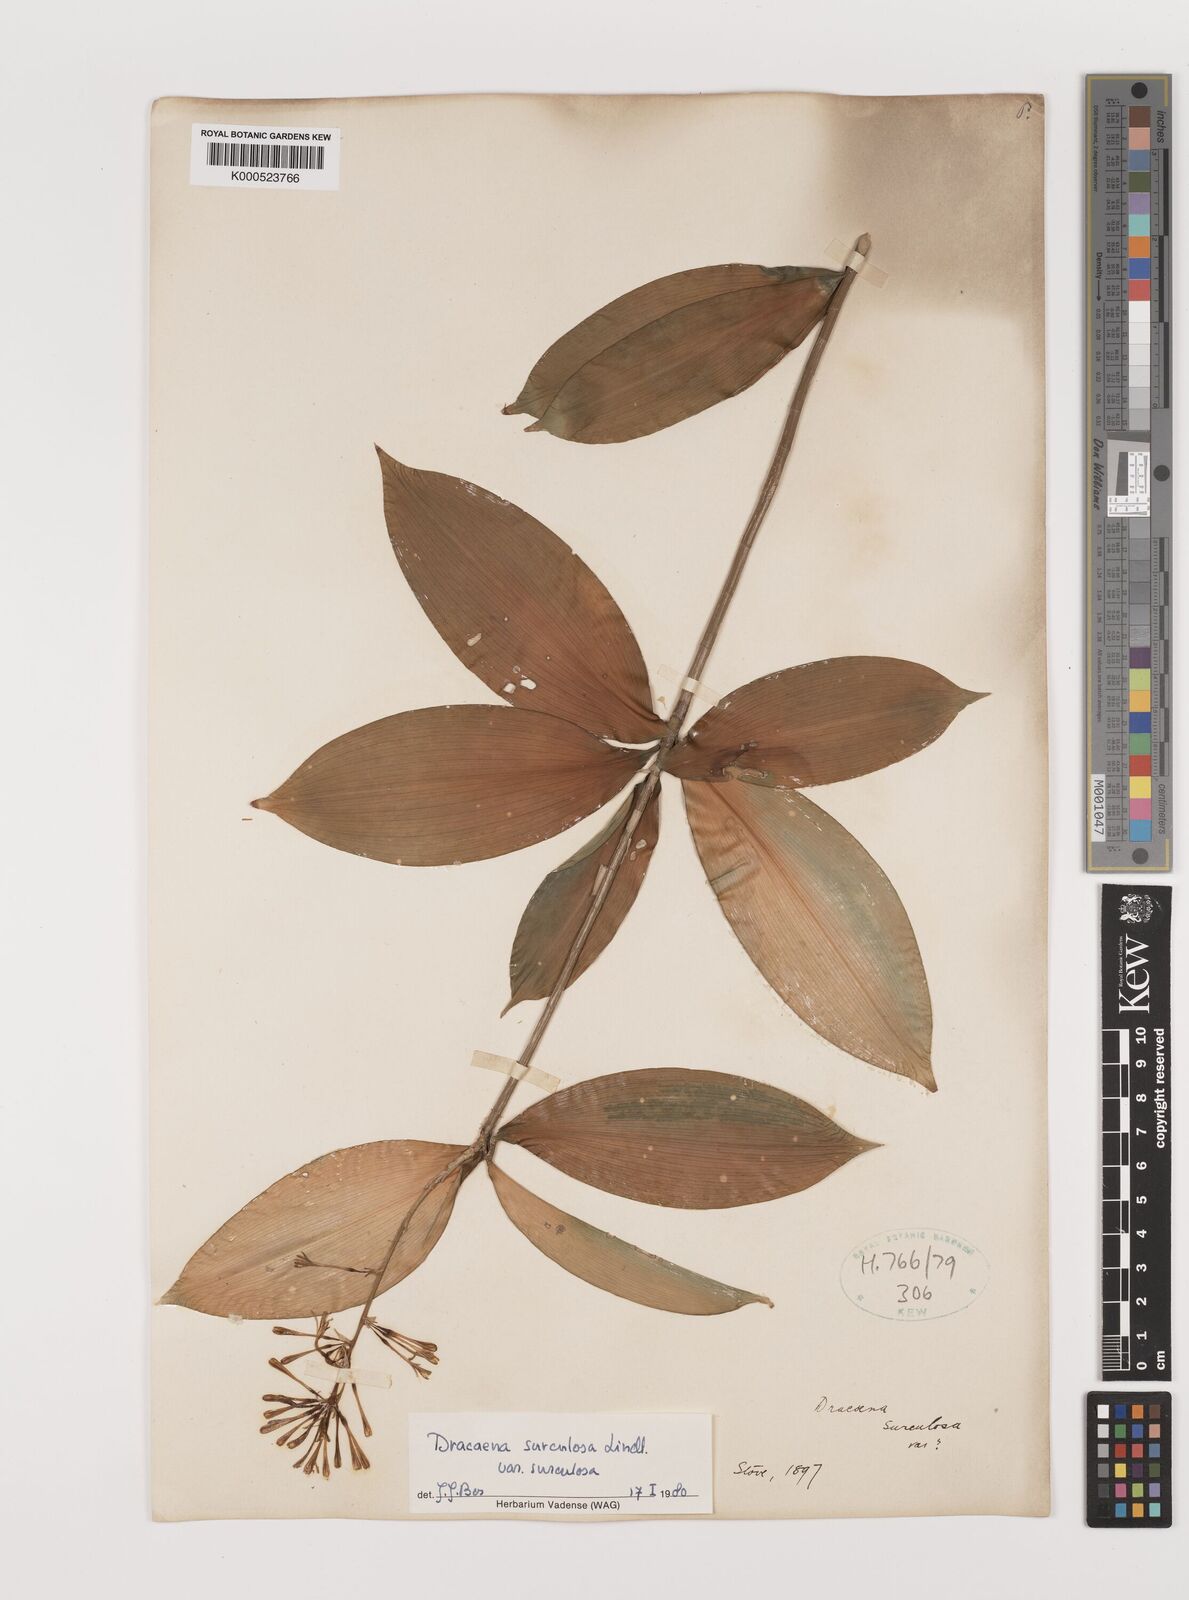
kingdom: Plantae
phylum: Tracheophyta
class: Liliopsida
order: Asparagales
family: Asparagaceae
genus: Dracaena
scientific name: Dracaena surculosa
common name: Spotted dracaena
